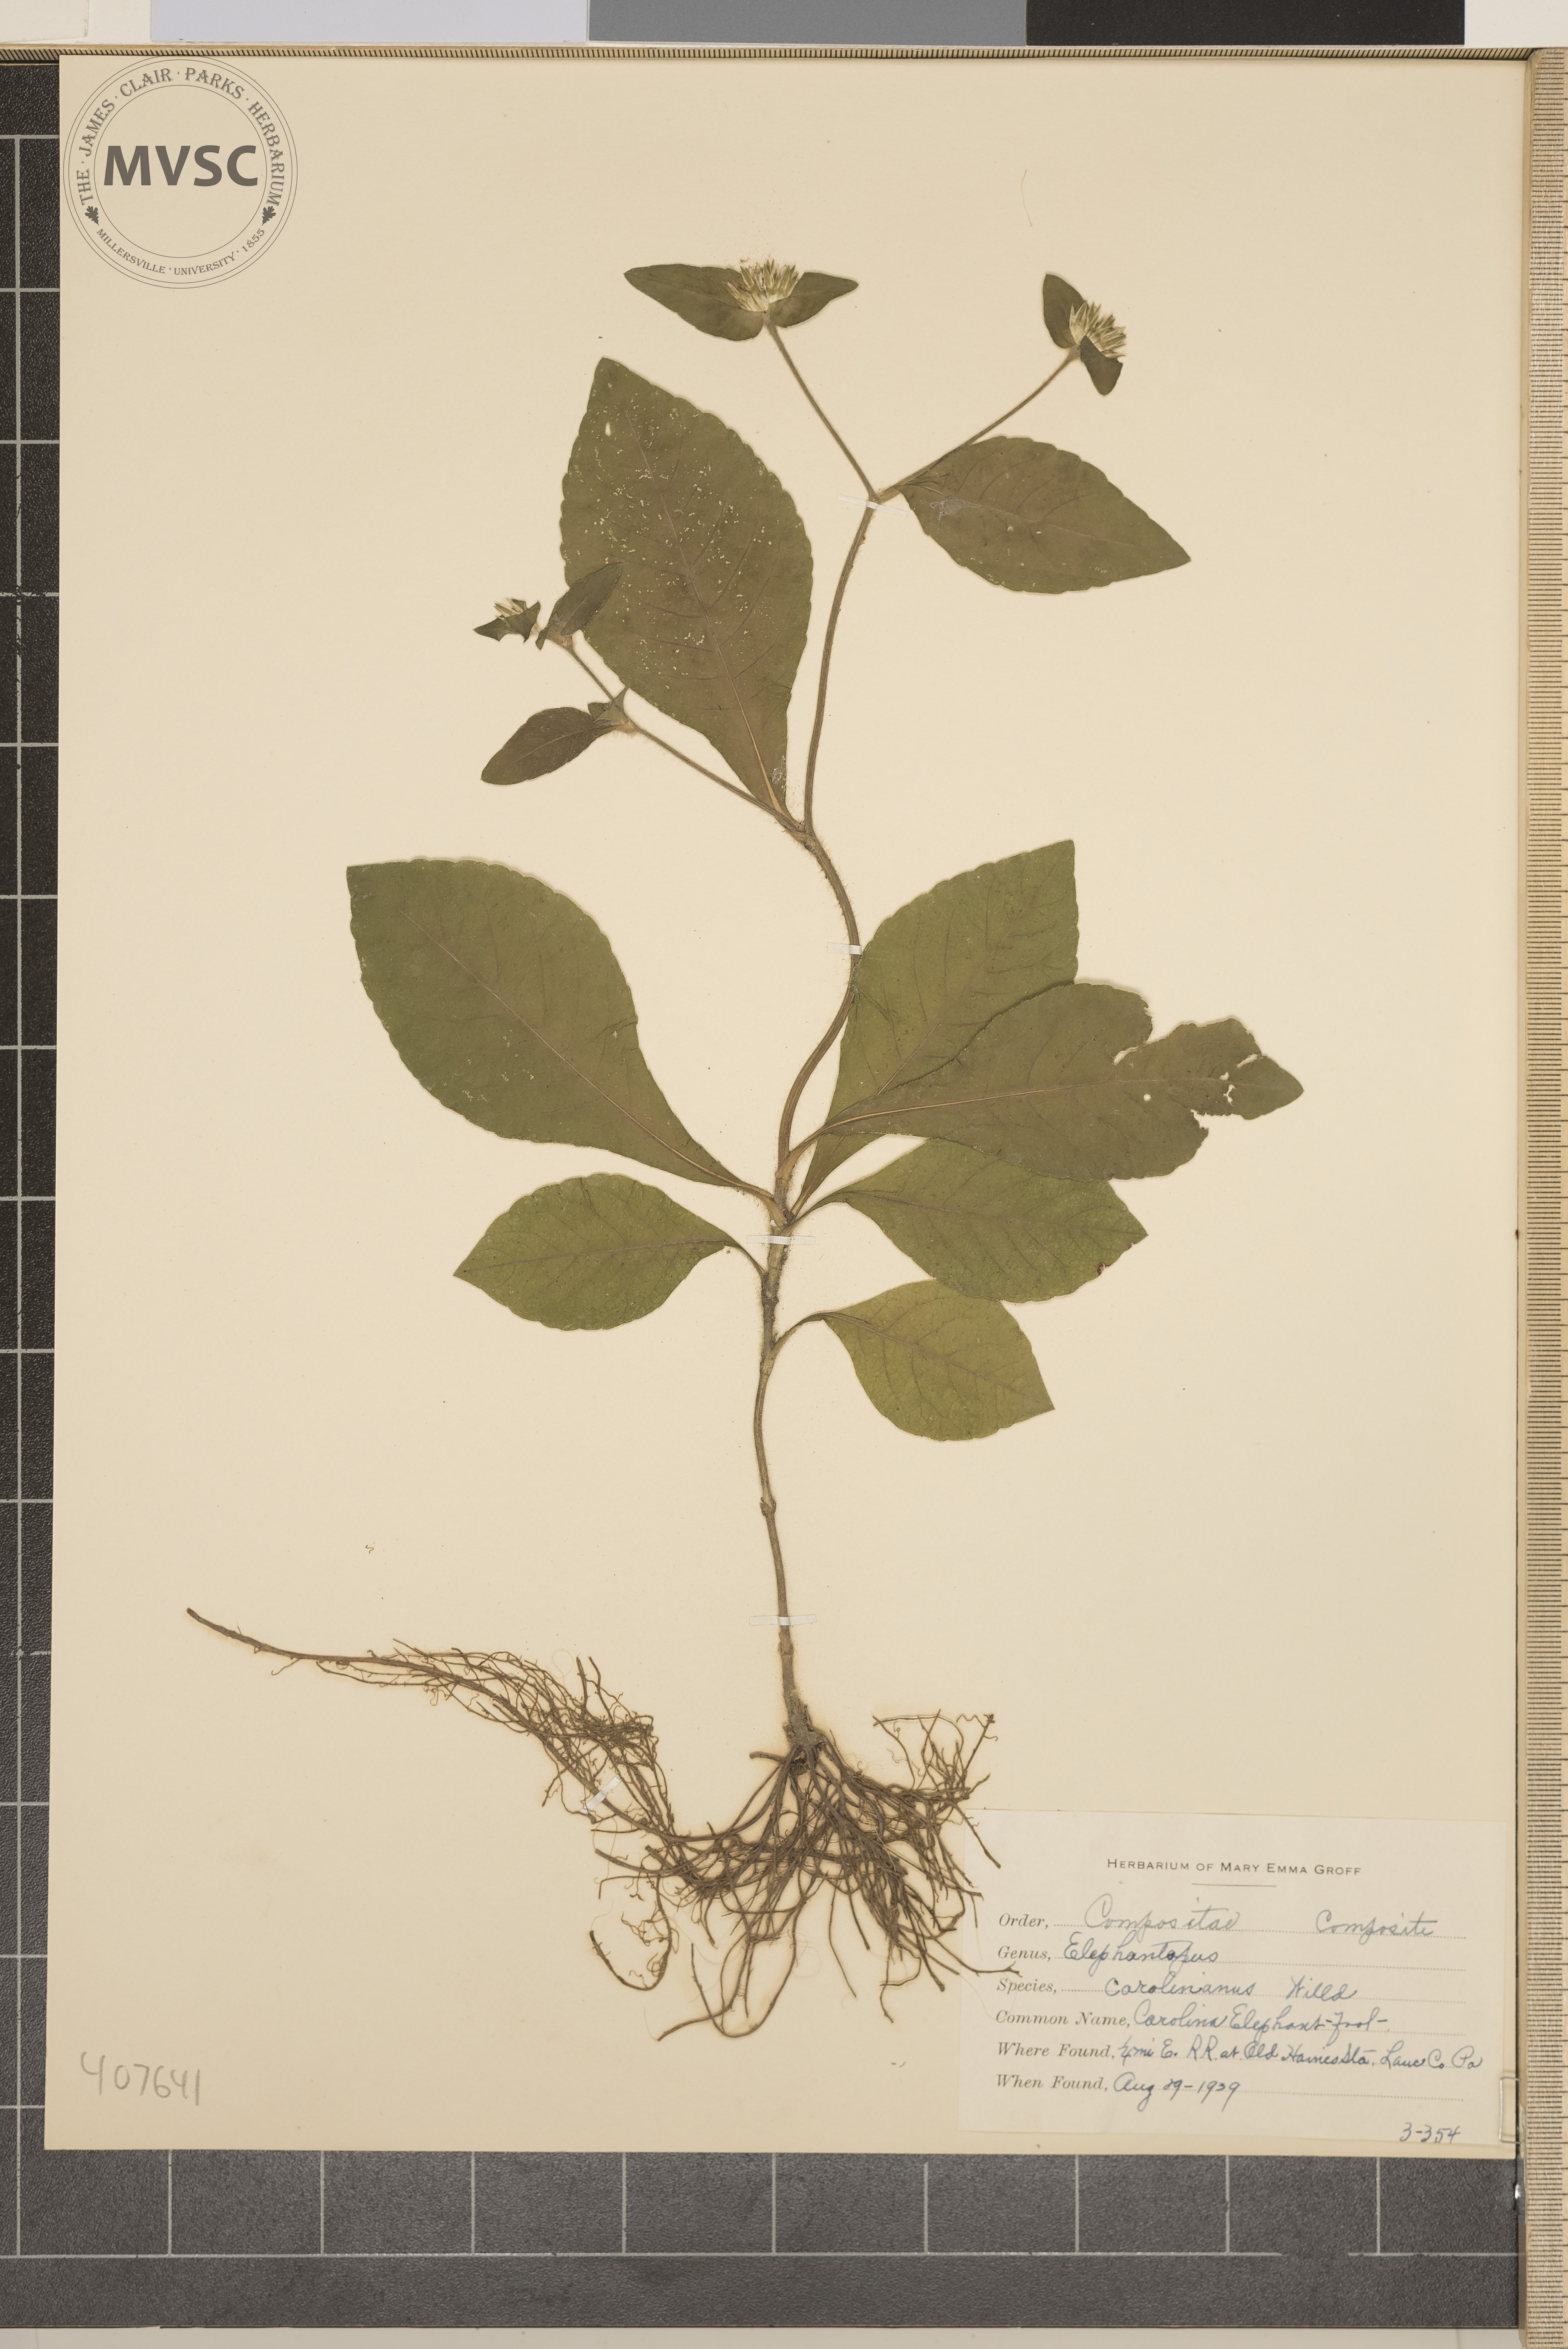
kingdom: Plantae
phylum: Tracheophyta
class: Magnoliopsida
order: Asterales
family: Asteraceae
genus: Elephantopus
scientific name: Elephantopus carolinianus
